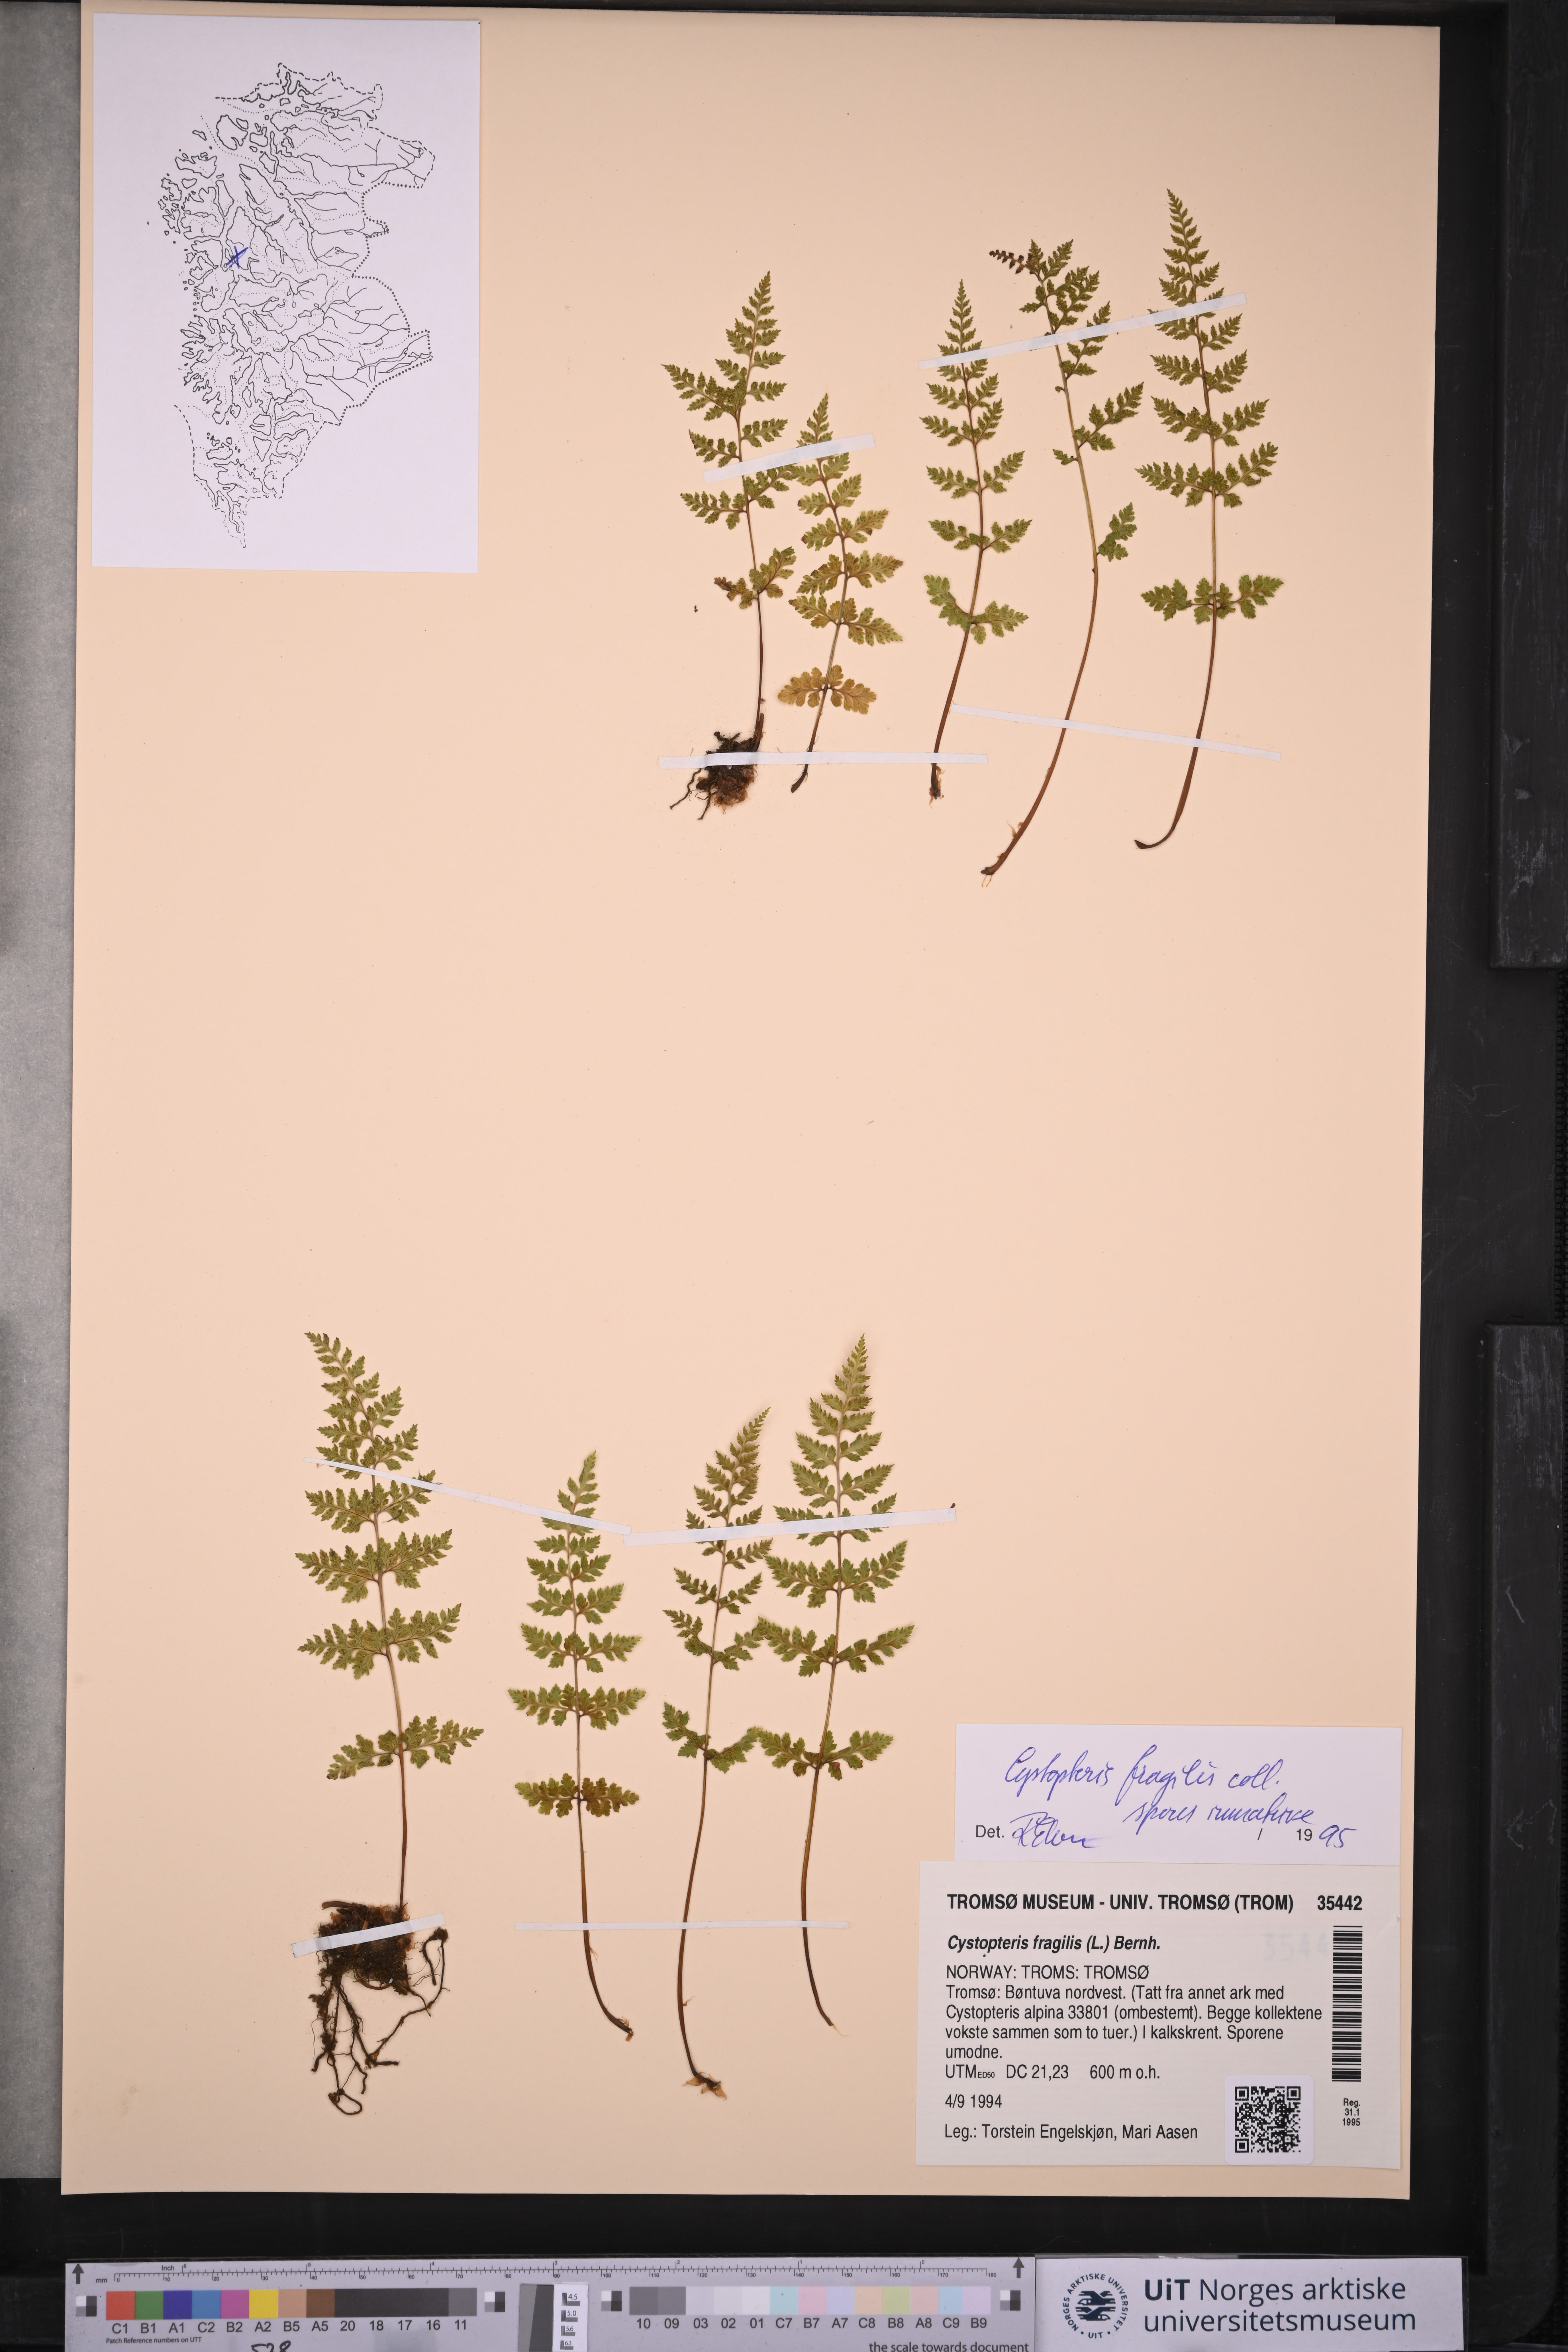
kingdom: Plantae
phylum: Tracheophyta
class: Polypodiopsida
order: Polypodiales
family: Cystopteridaceae
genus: Cystopteris
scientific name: Cystopteris fragilis
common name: Brittle bladder fern
